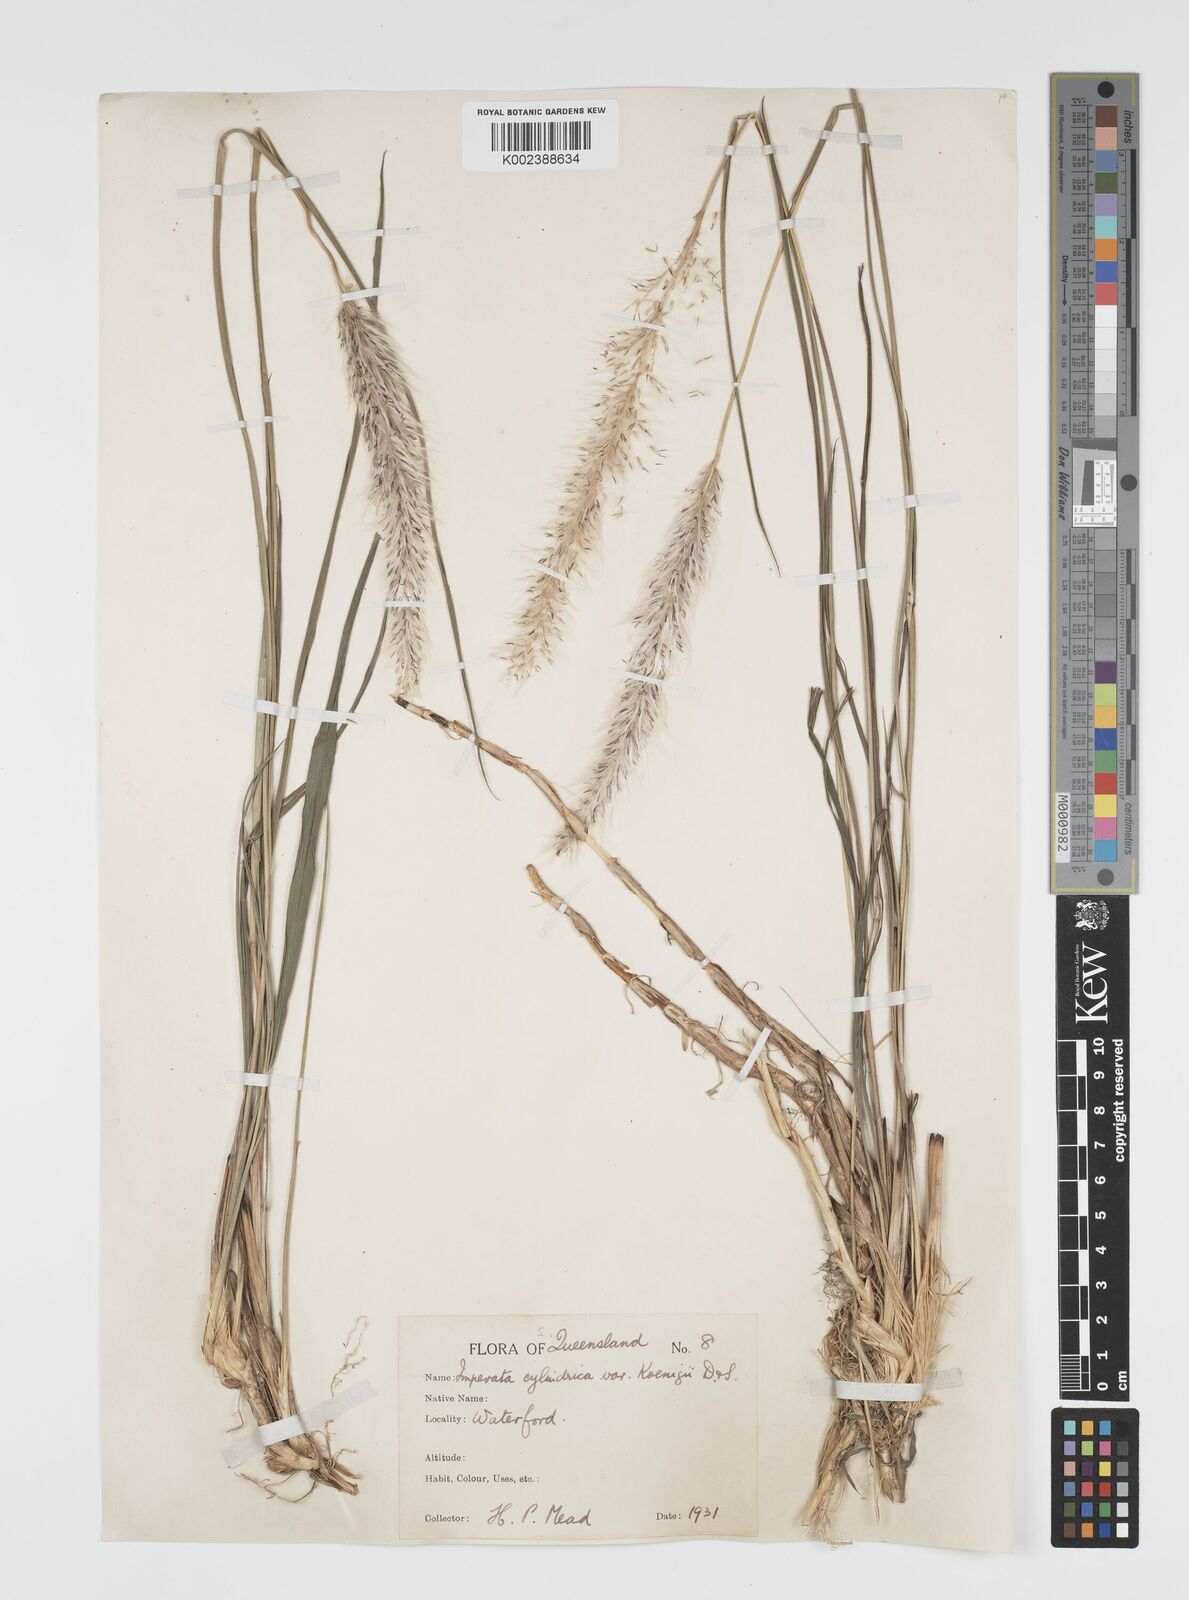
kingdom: Plantae
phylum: Tracheophyta
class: Liliopsida
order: Poales
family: Poaceae
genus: Imperata
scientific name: Imperata cylindrica
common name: Cogongrass
